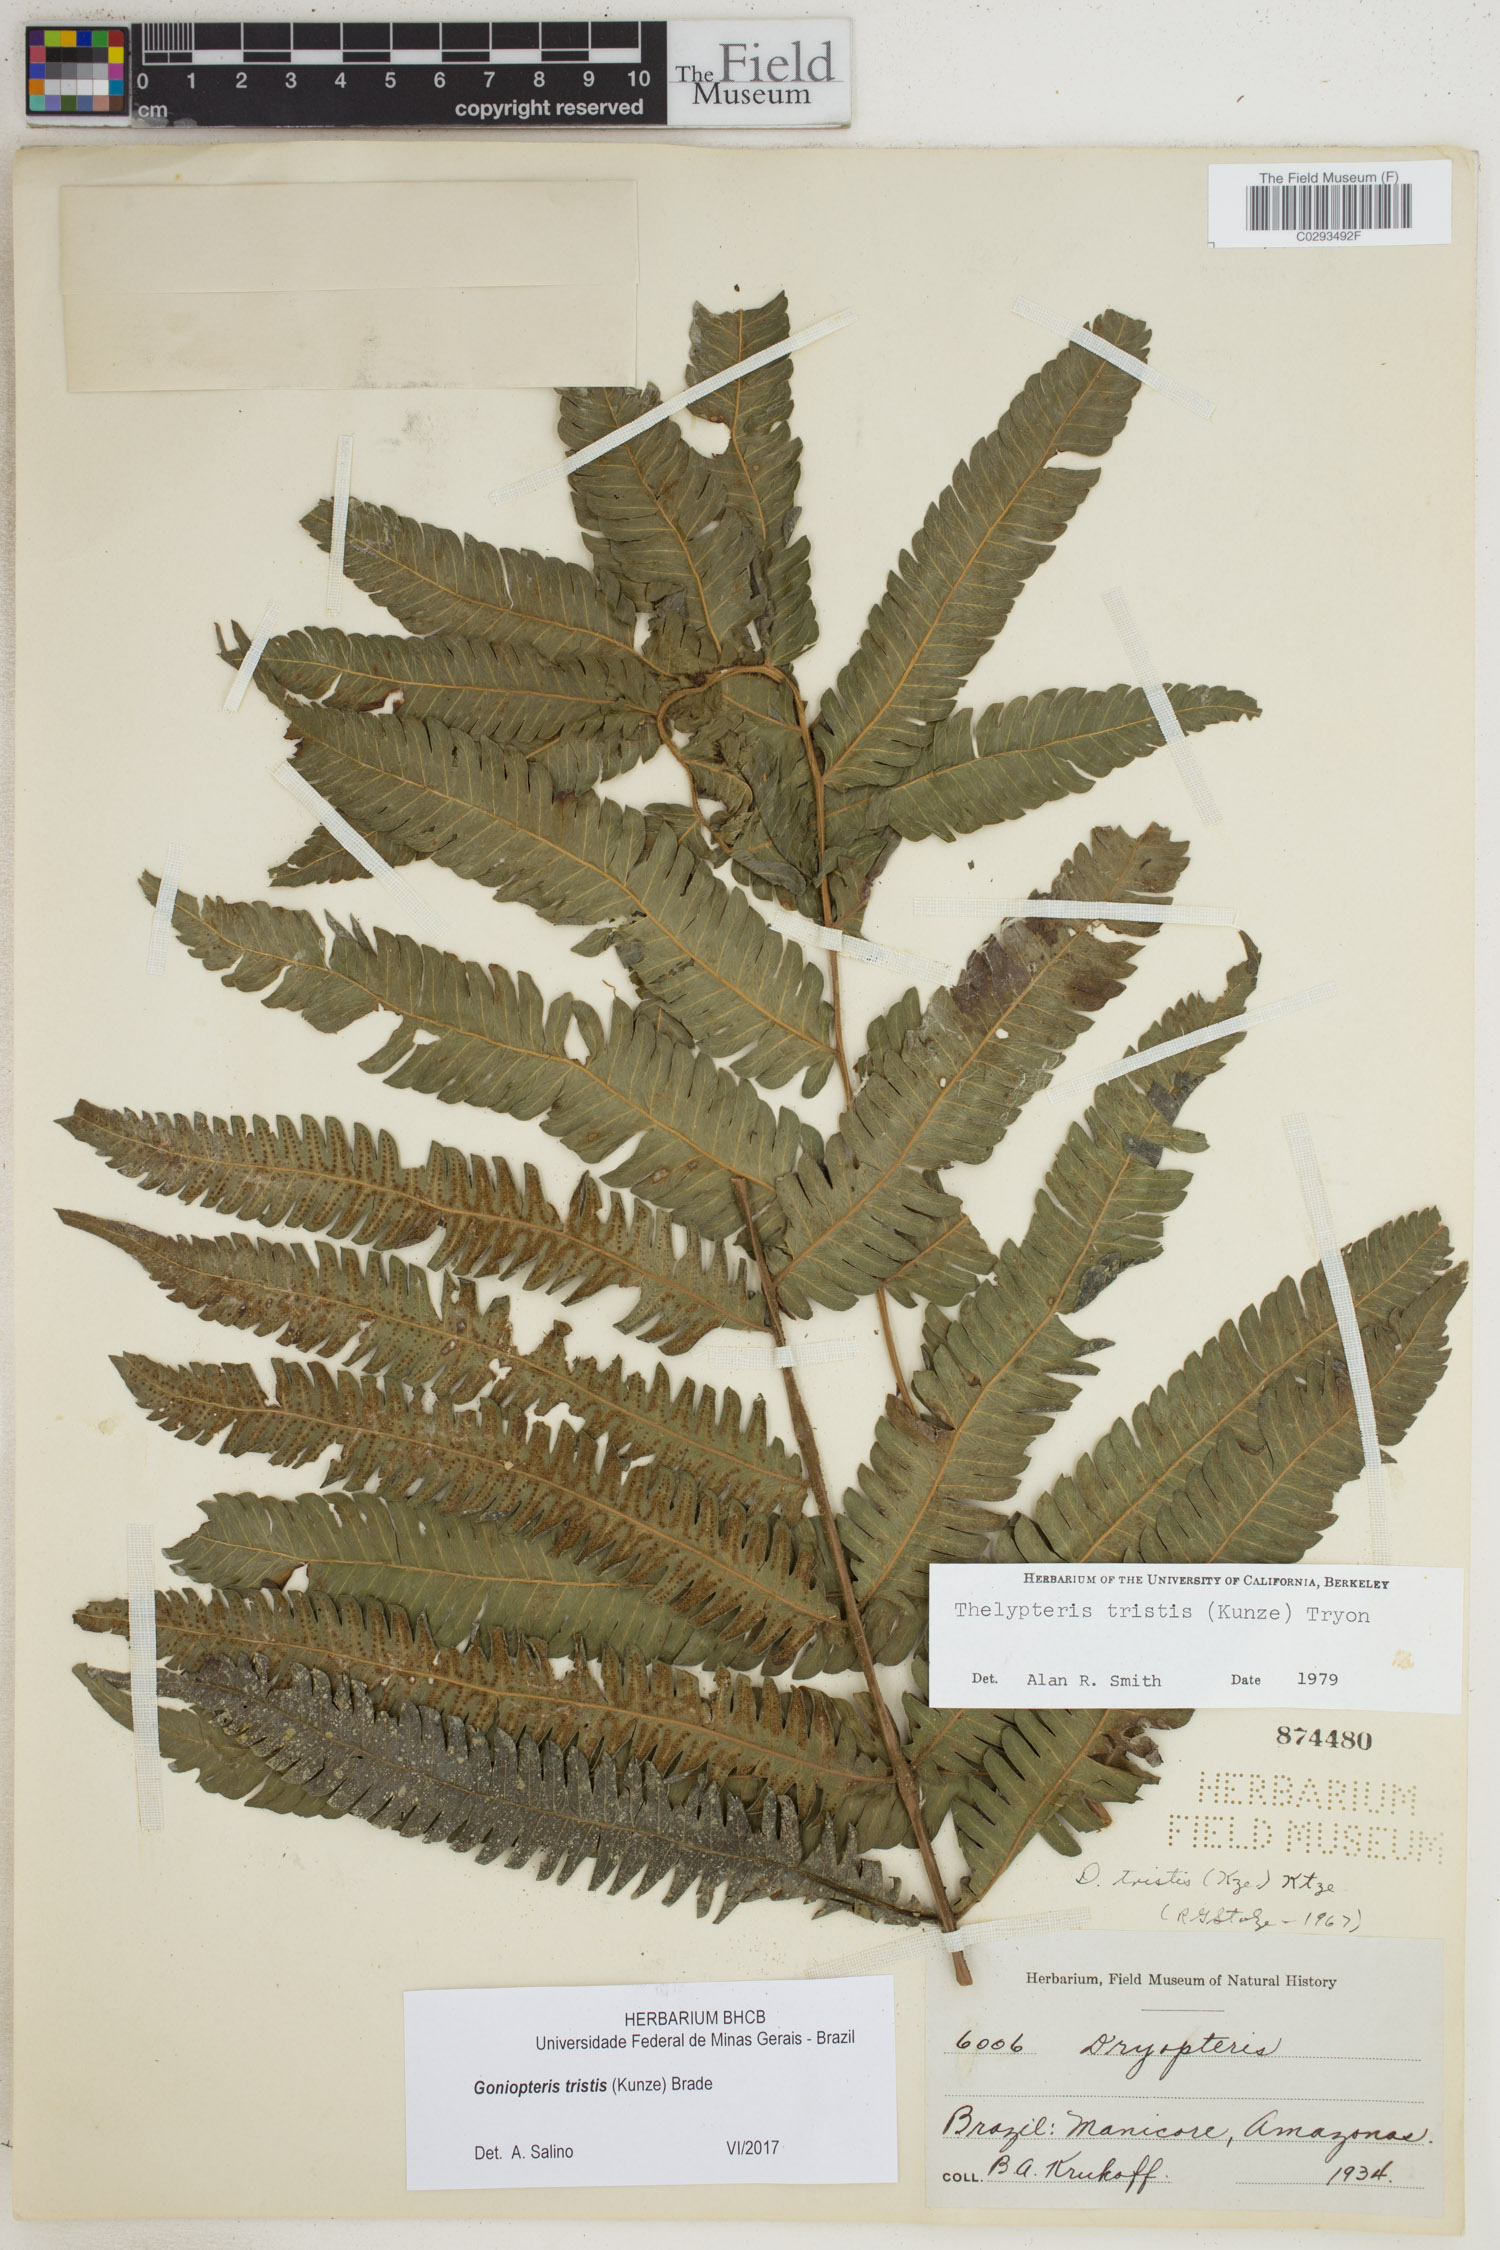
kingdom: Plantae
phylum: Tracheophyta
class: Polypodiopsida
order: Polypodiales
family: Thelypteridaceae
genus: Goniopteris
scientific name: Goniopteris tristis
